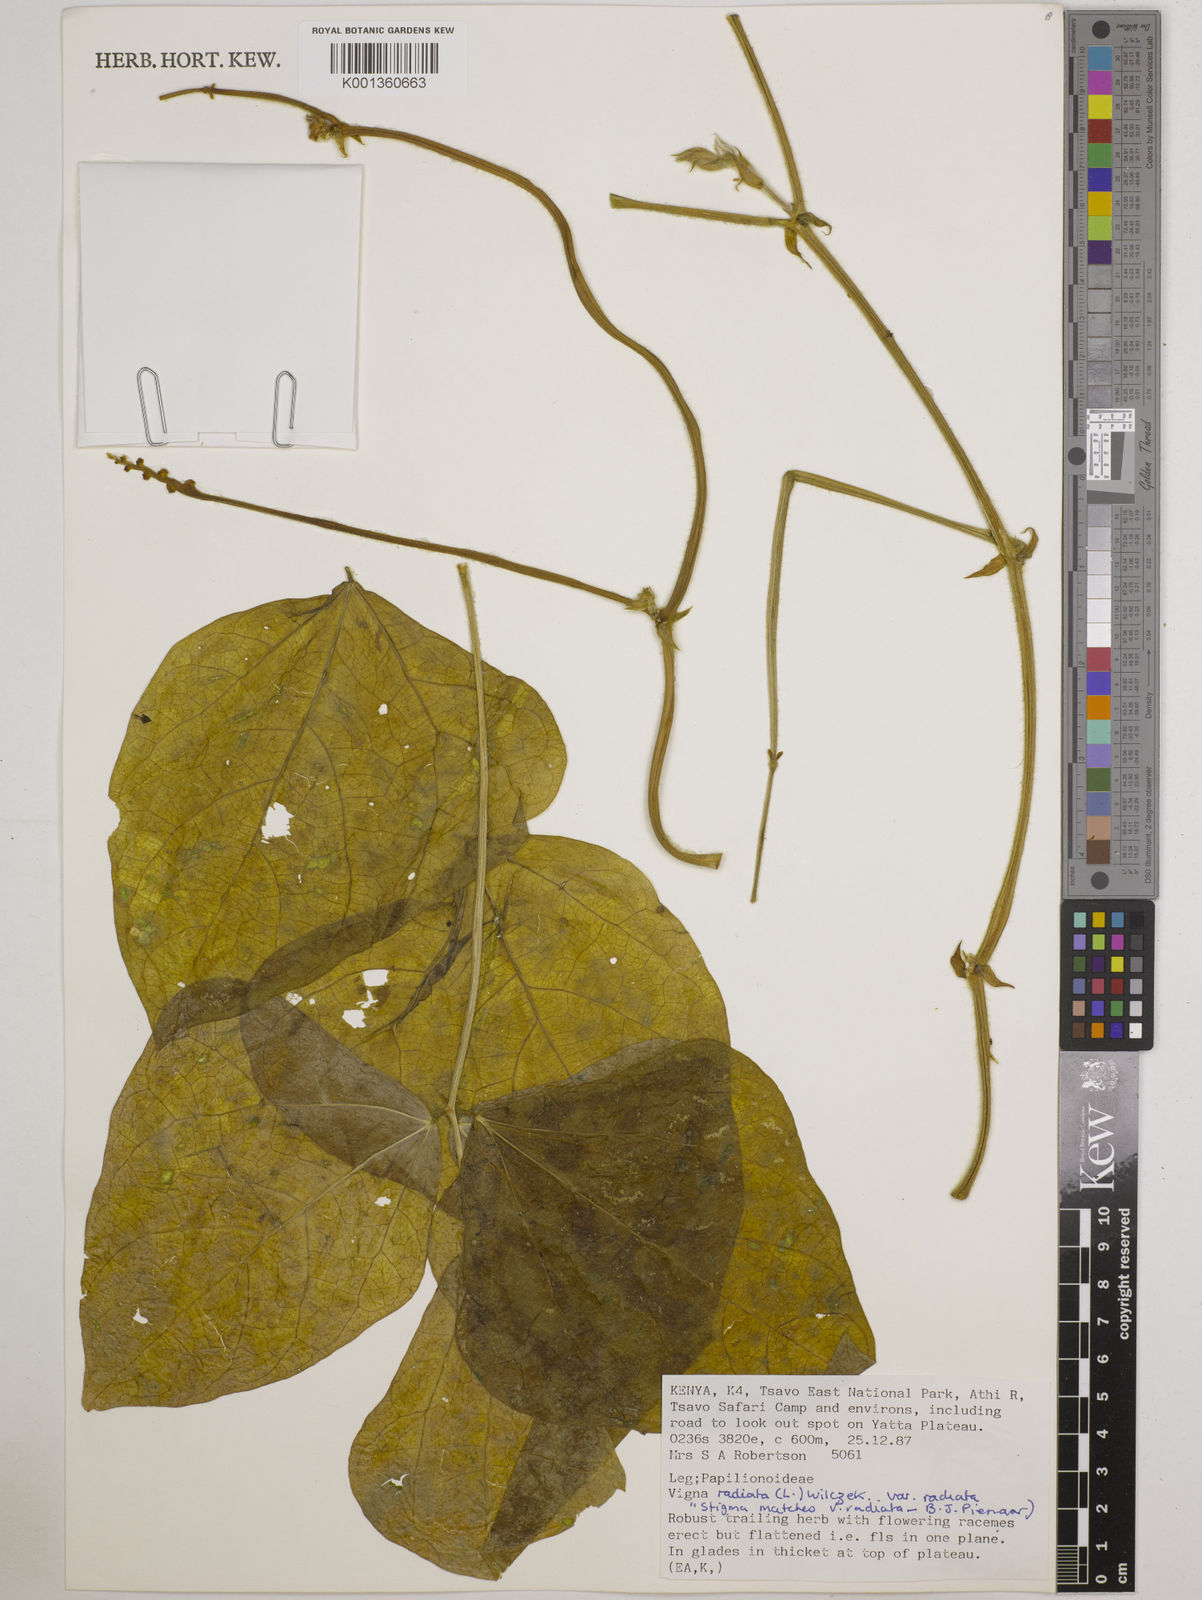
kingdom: Plantae
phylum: Tracheophyta
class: Magnoliopsida
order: Fabales
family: Fabaceae
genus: Vigna
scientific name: Vigna radiata
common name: Mung-bean
